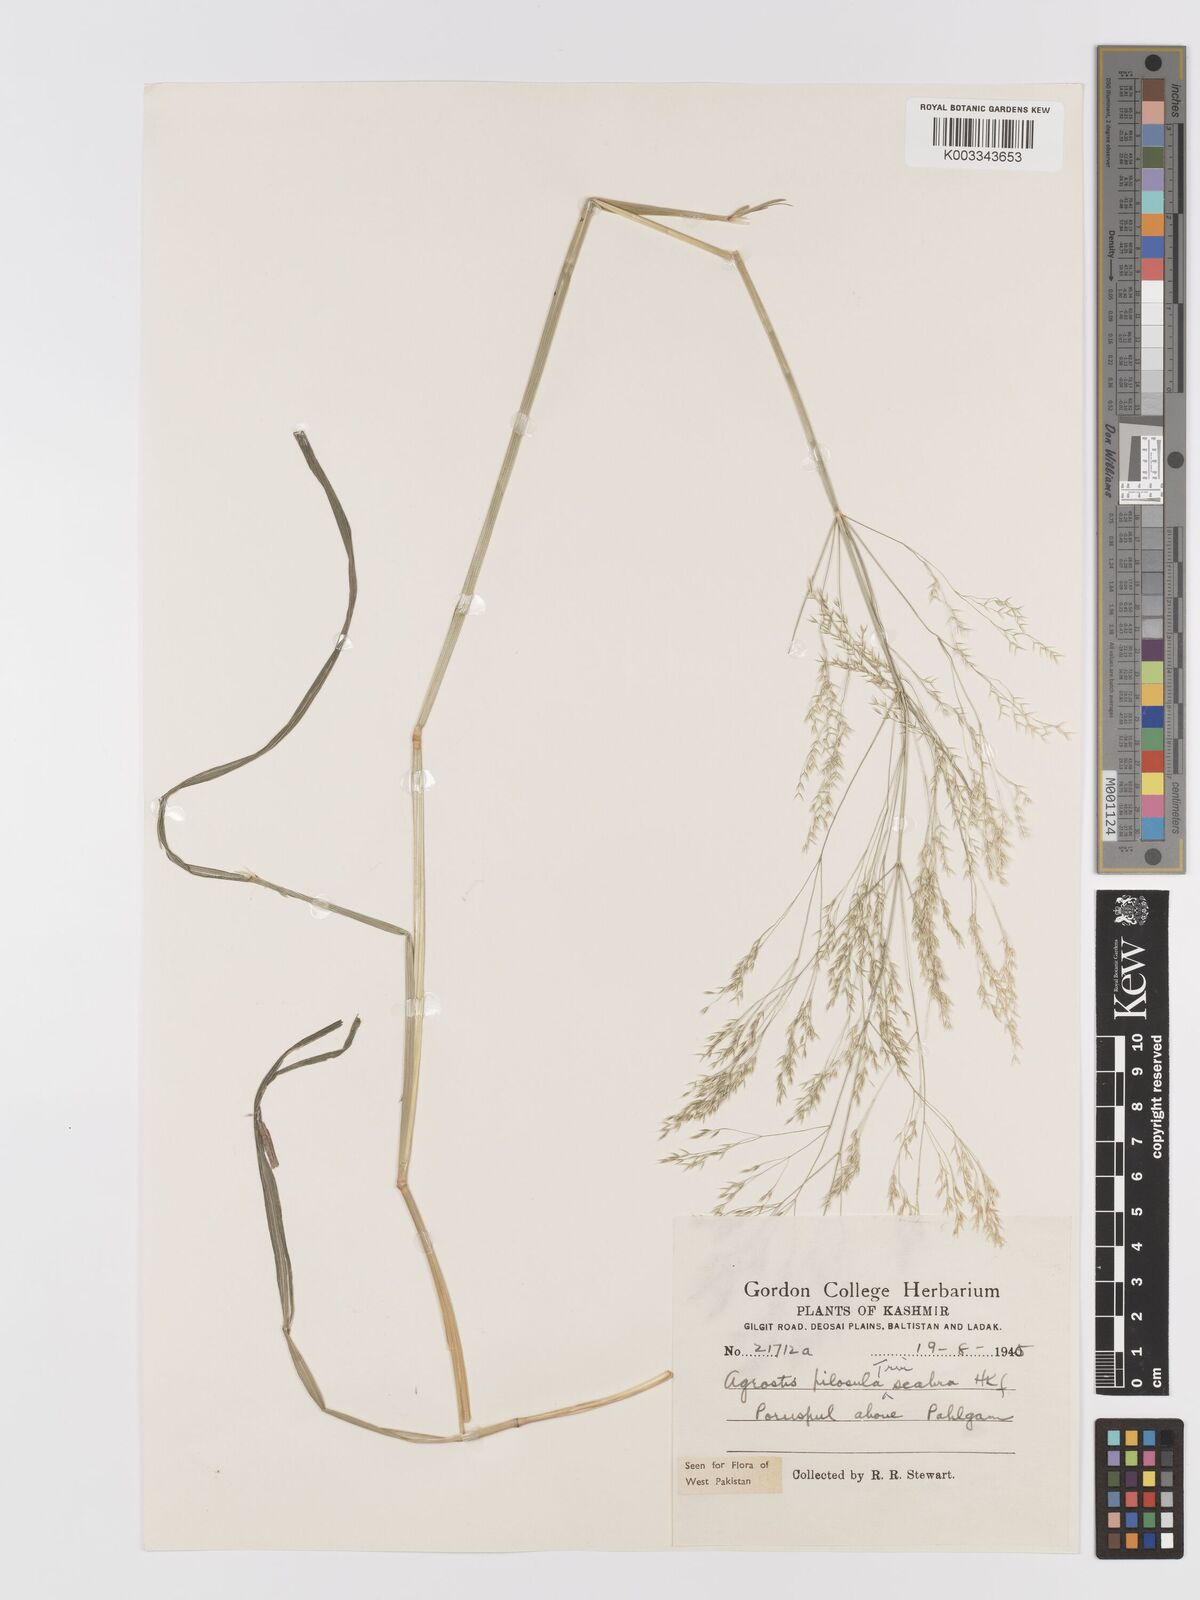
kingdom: Plantae
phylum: Tracheophyta
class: Liliopsida
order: Poales
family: Poaceae
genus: Agrostis
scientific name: Agrostis pilosula
